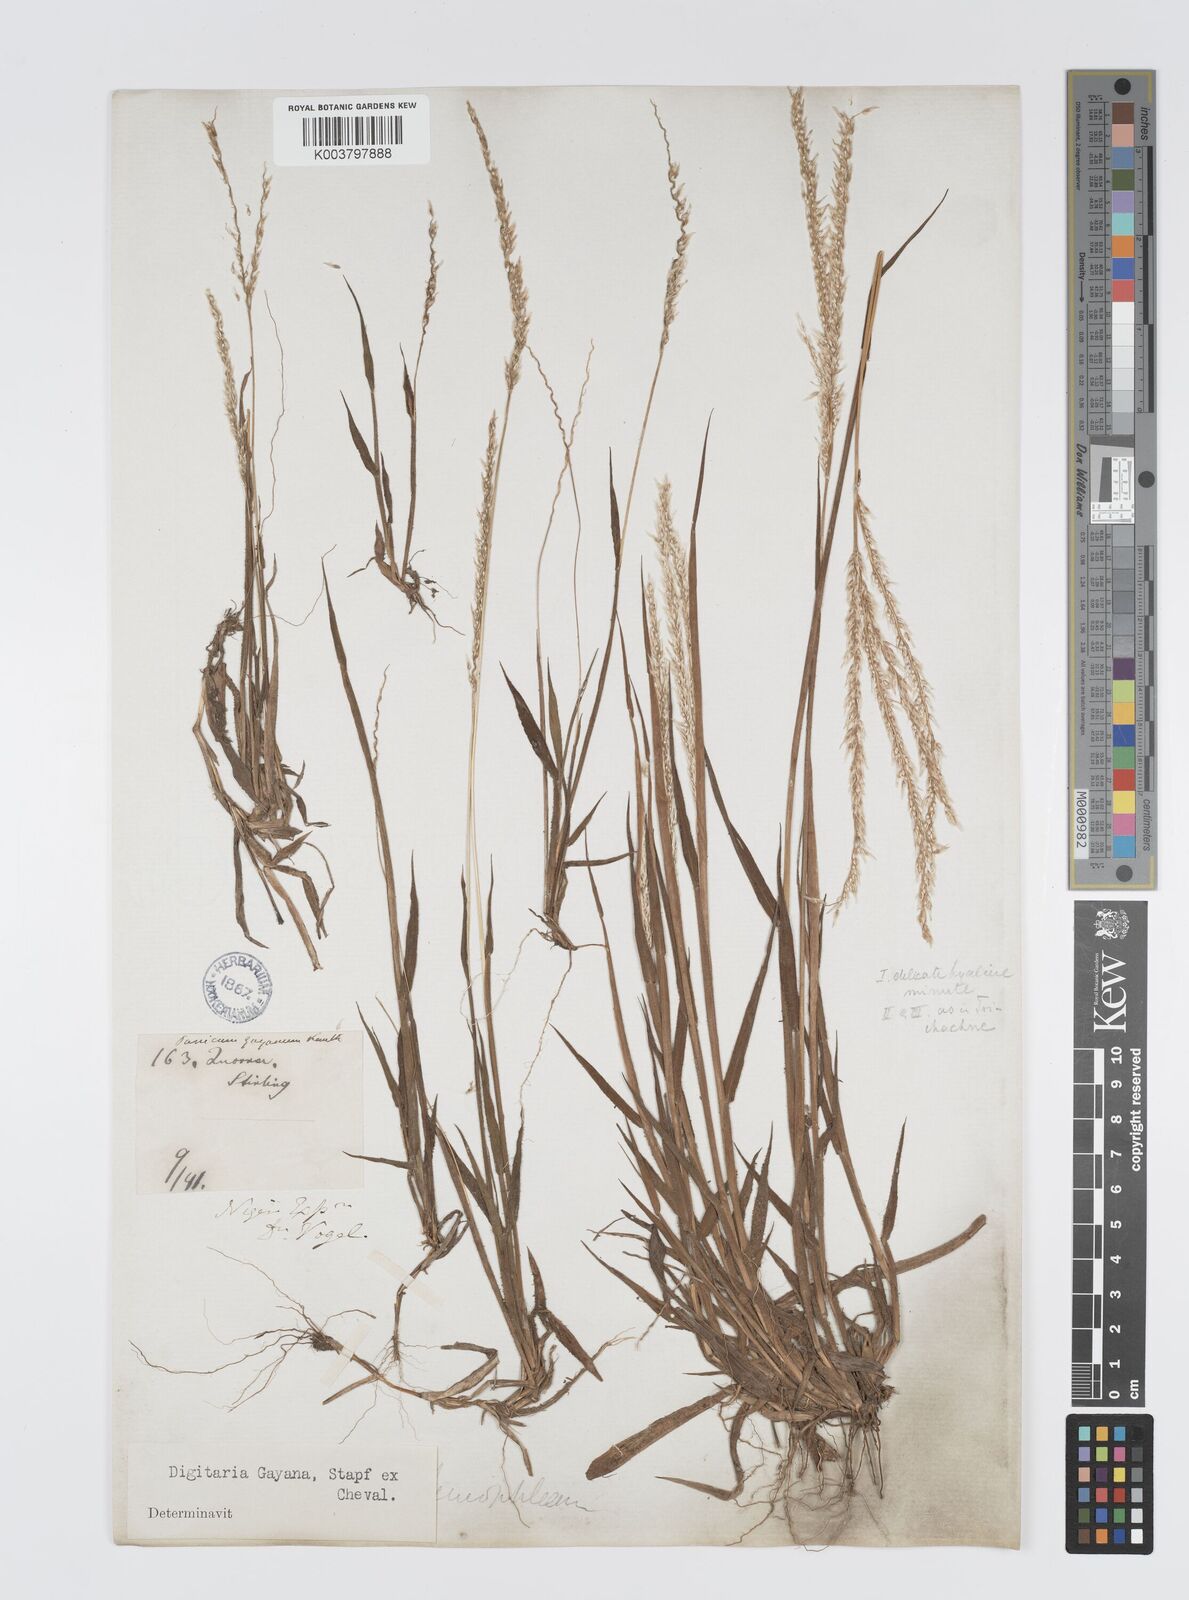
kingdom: Plantae
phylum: Tracheophyta
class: Liliopsida
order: Poales
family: Poaceae
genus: Digitaria
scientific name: Digitaria gayana
